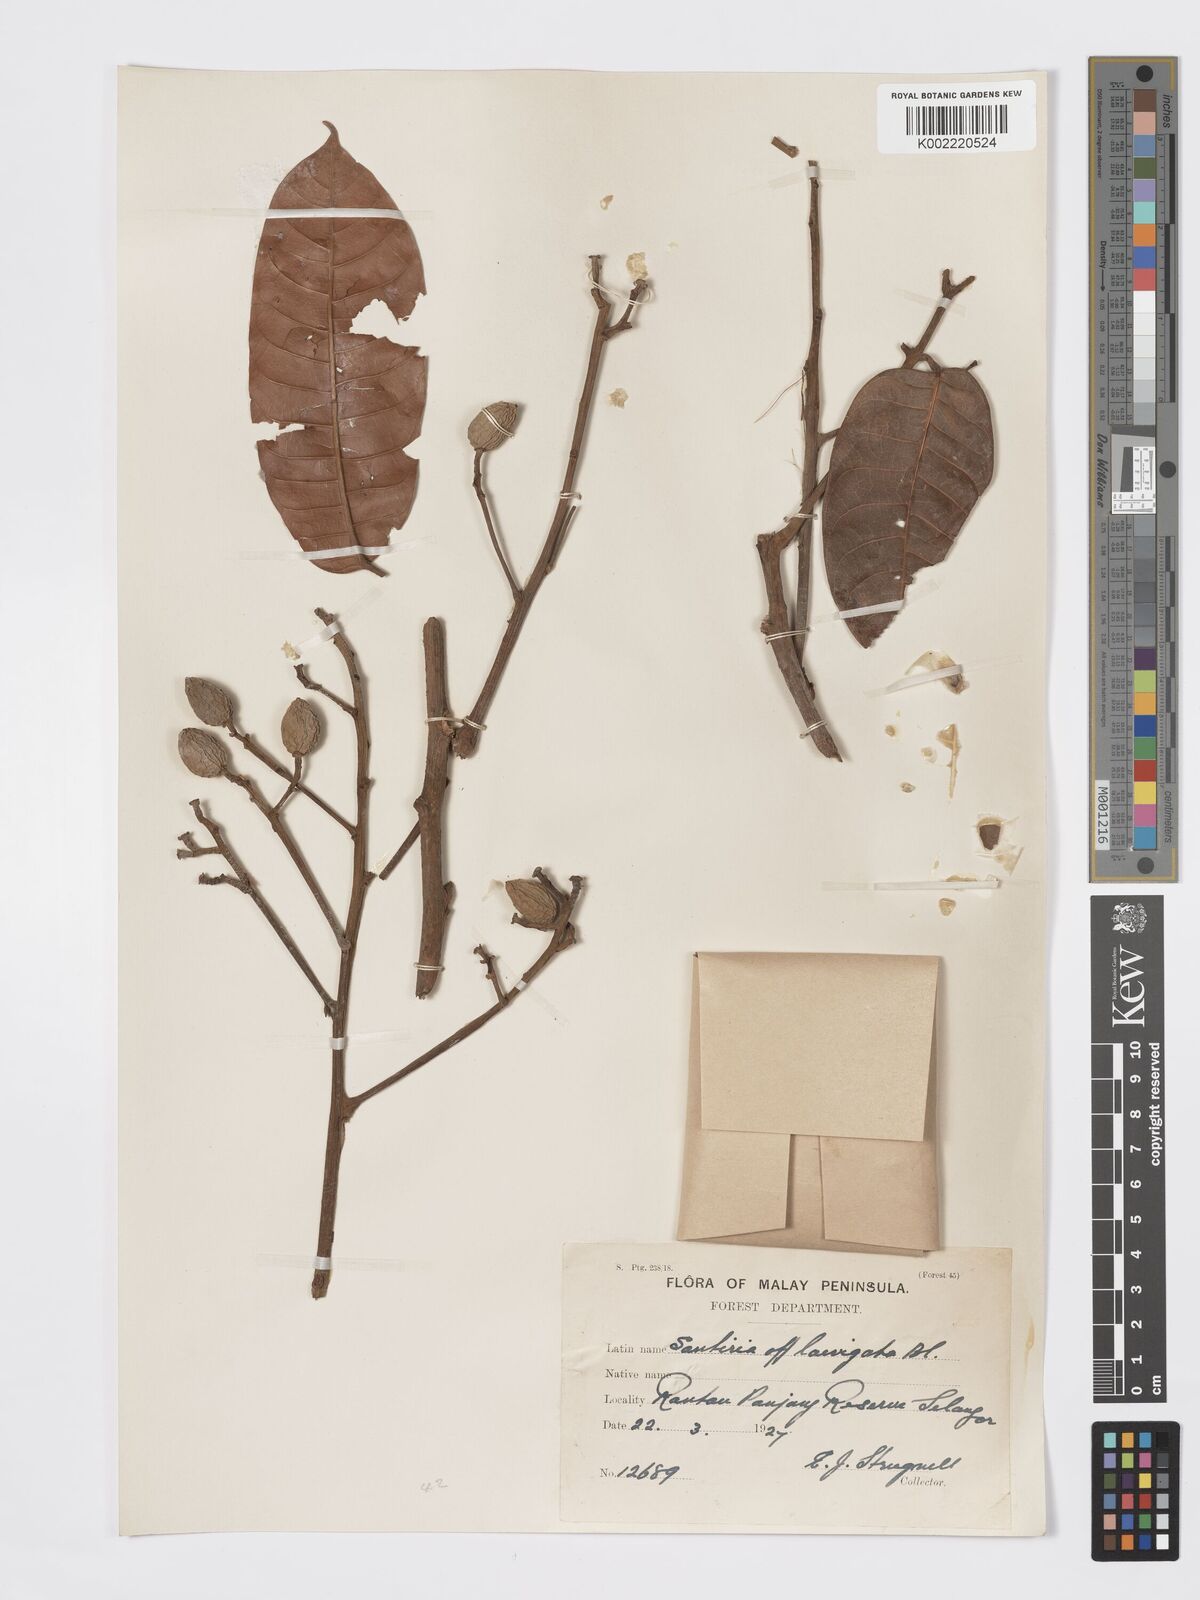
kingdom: Plantae
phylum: Tracheophyta
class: Magnoliopsida
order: Sapindales
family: Burseraceae
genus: Santiria
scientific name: Santiria laevigata
